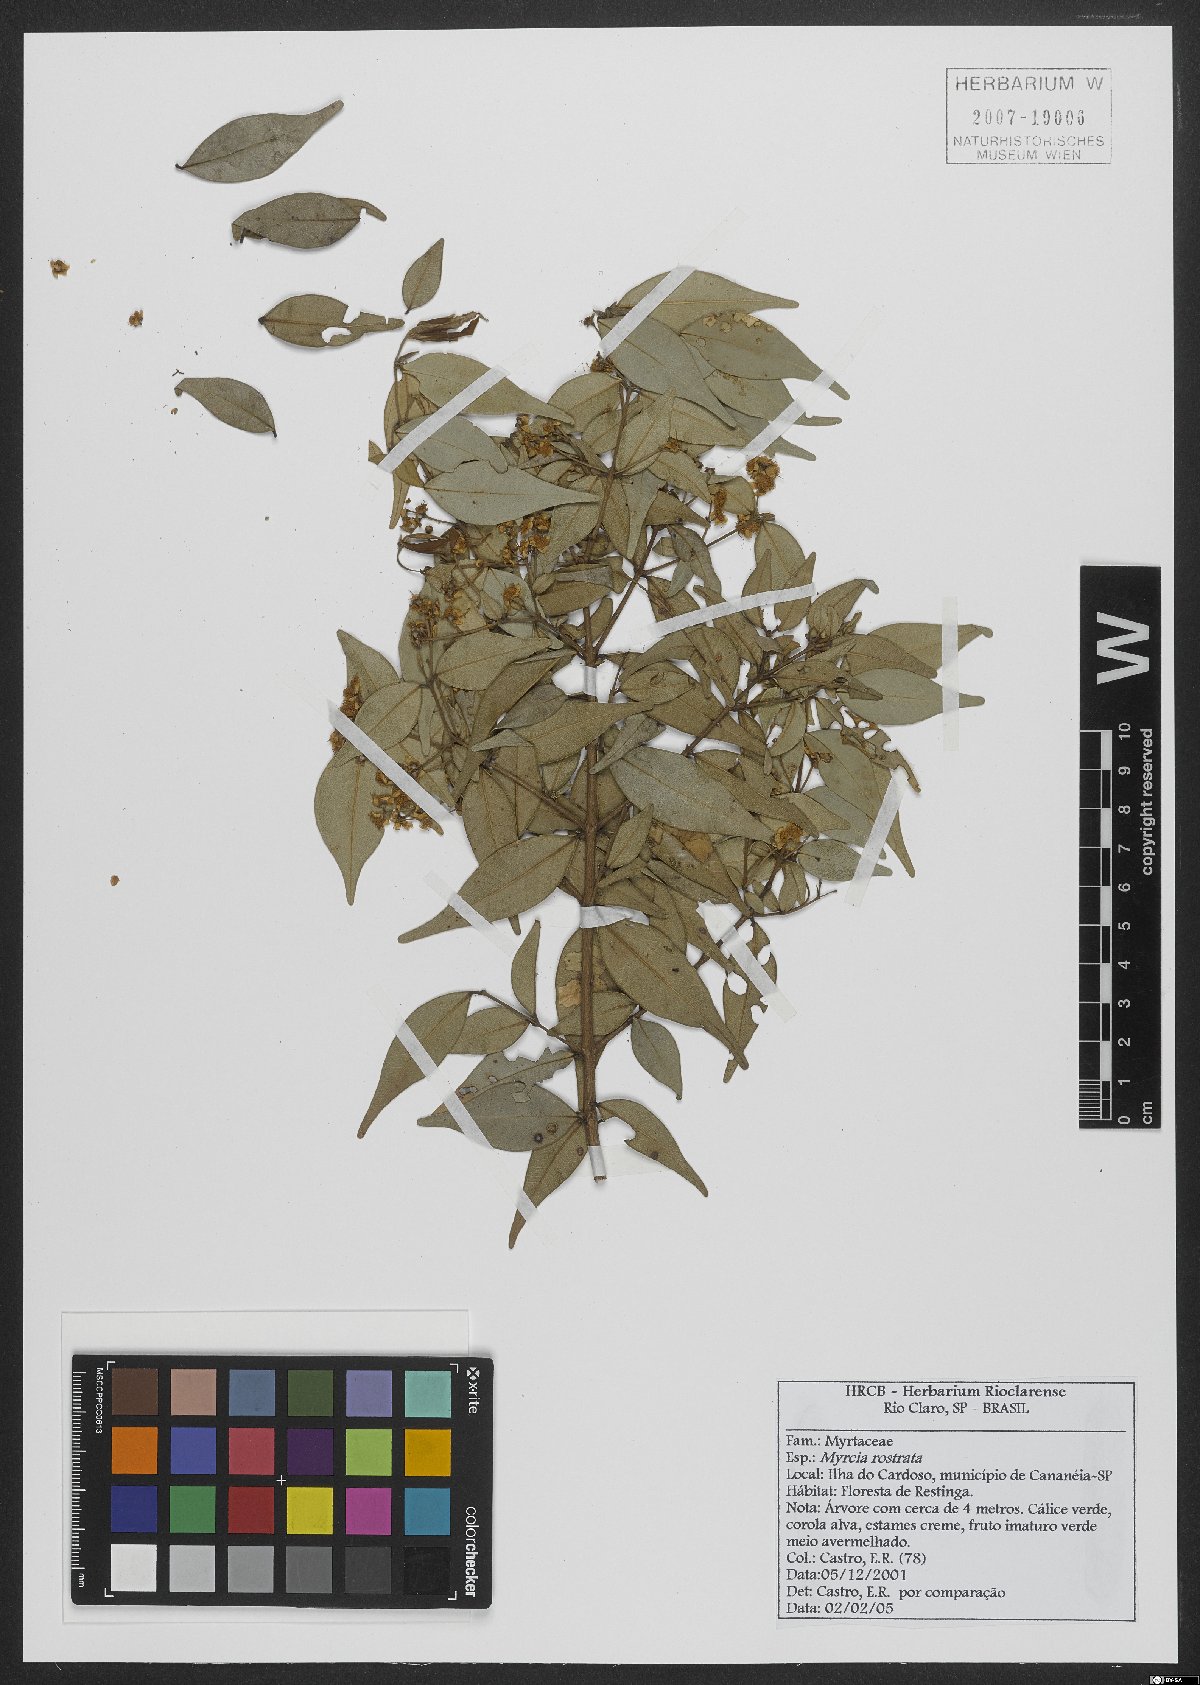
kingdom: Plantae
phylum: Tracheophyta
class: Magnoliopsida
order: Myrtales
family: Myrtaceae
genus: Myrcia
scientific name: Myrcia splendens
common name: Surinam cherry
